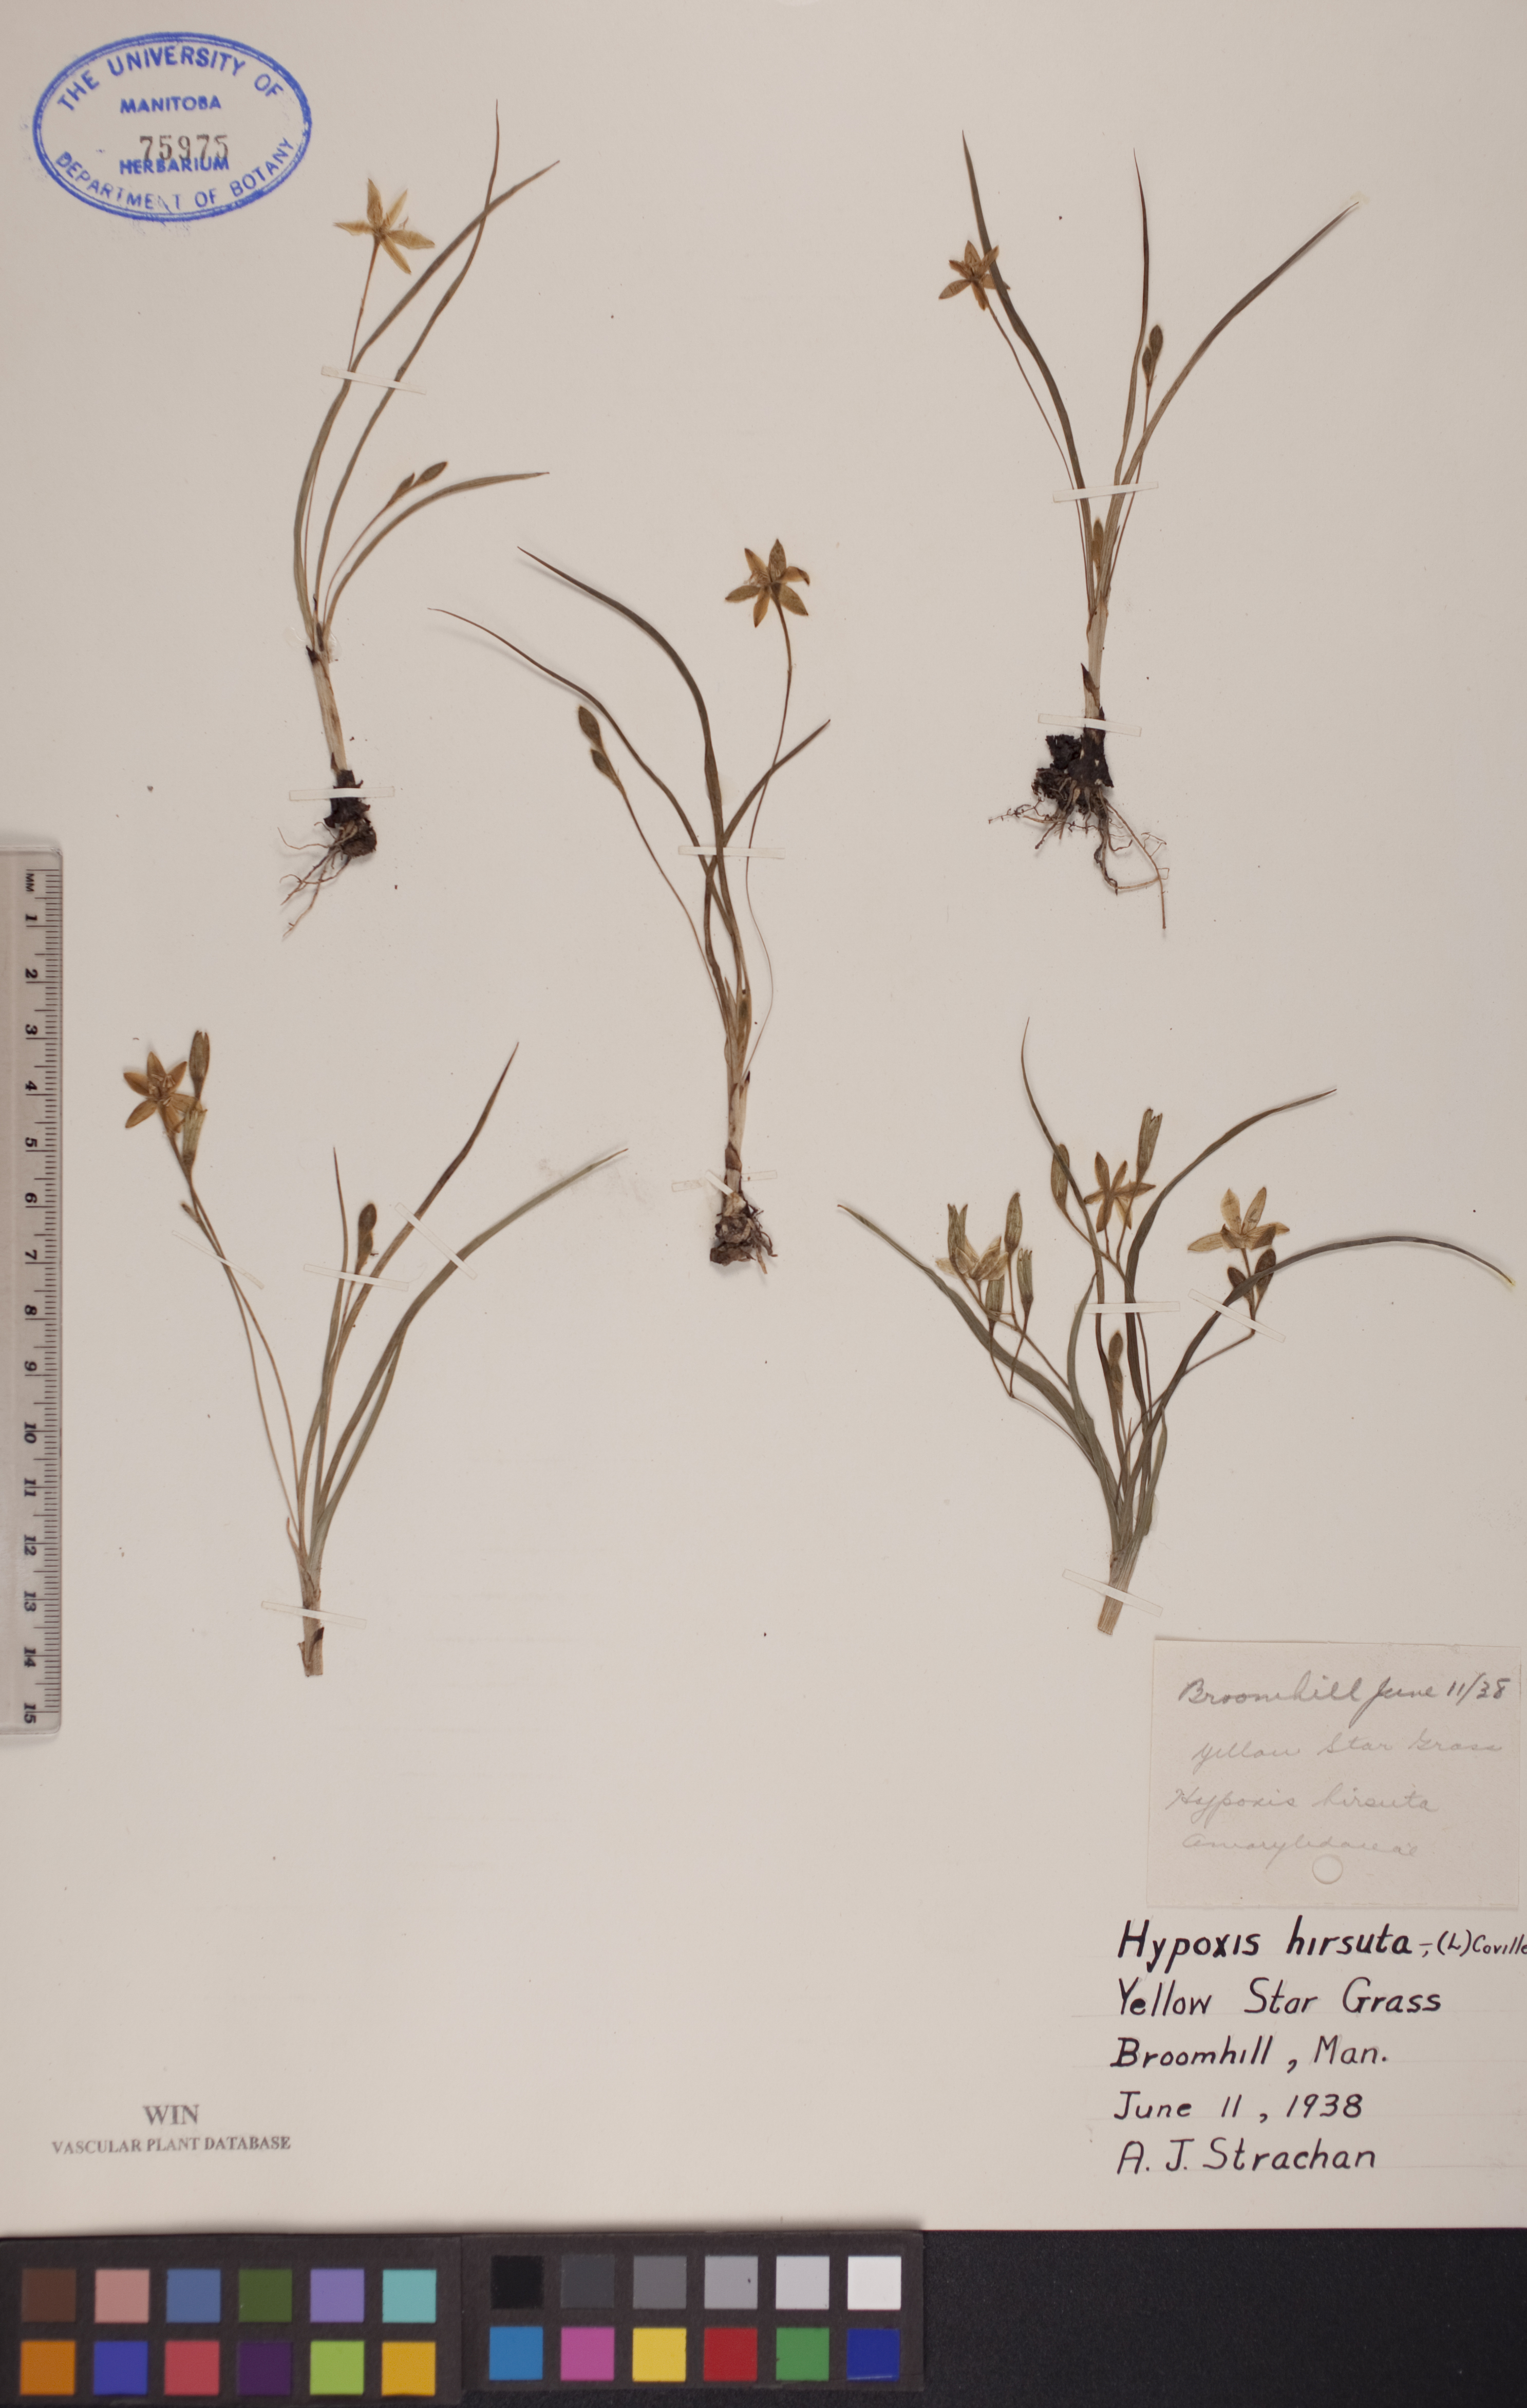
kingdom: Plantae
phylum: Tracheophyta
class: Liliopsida
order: Asparagales
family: Hypoxidaceae
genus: Hypoxis
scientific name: Hypoxis hirsuta
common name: Common goldstar
